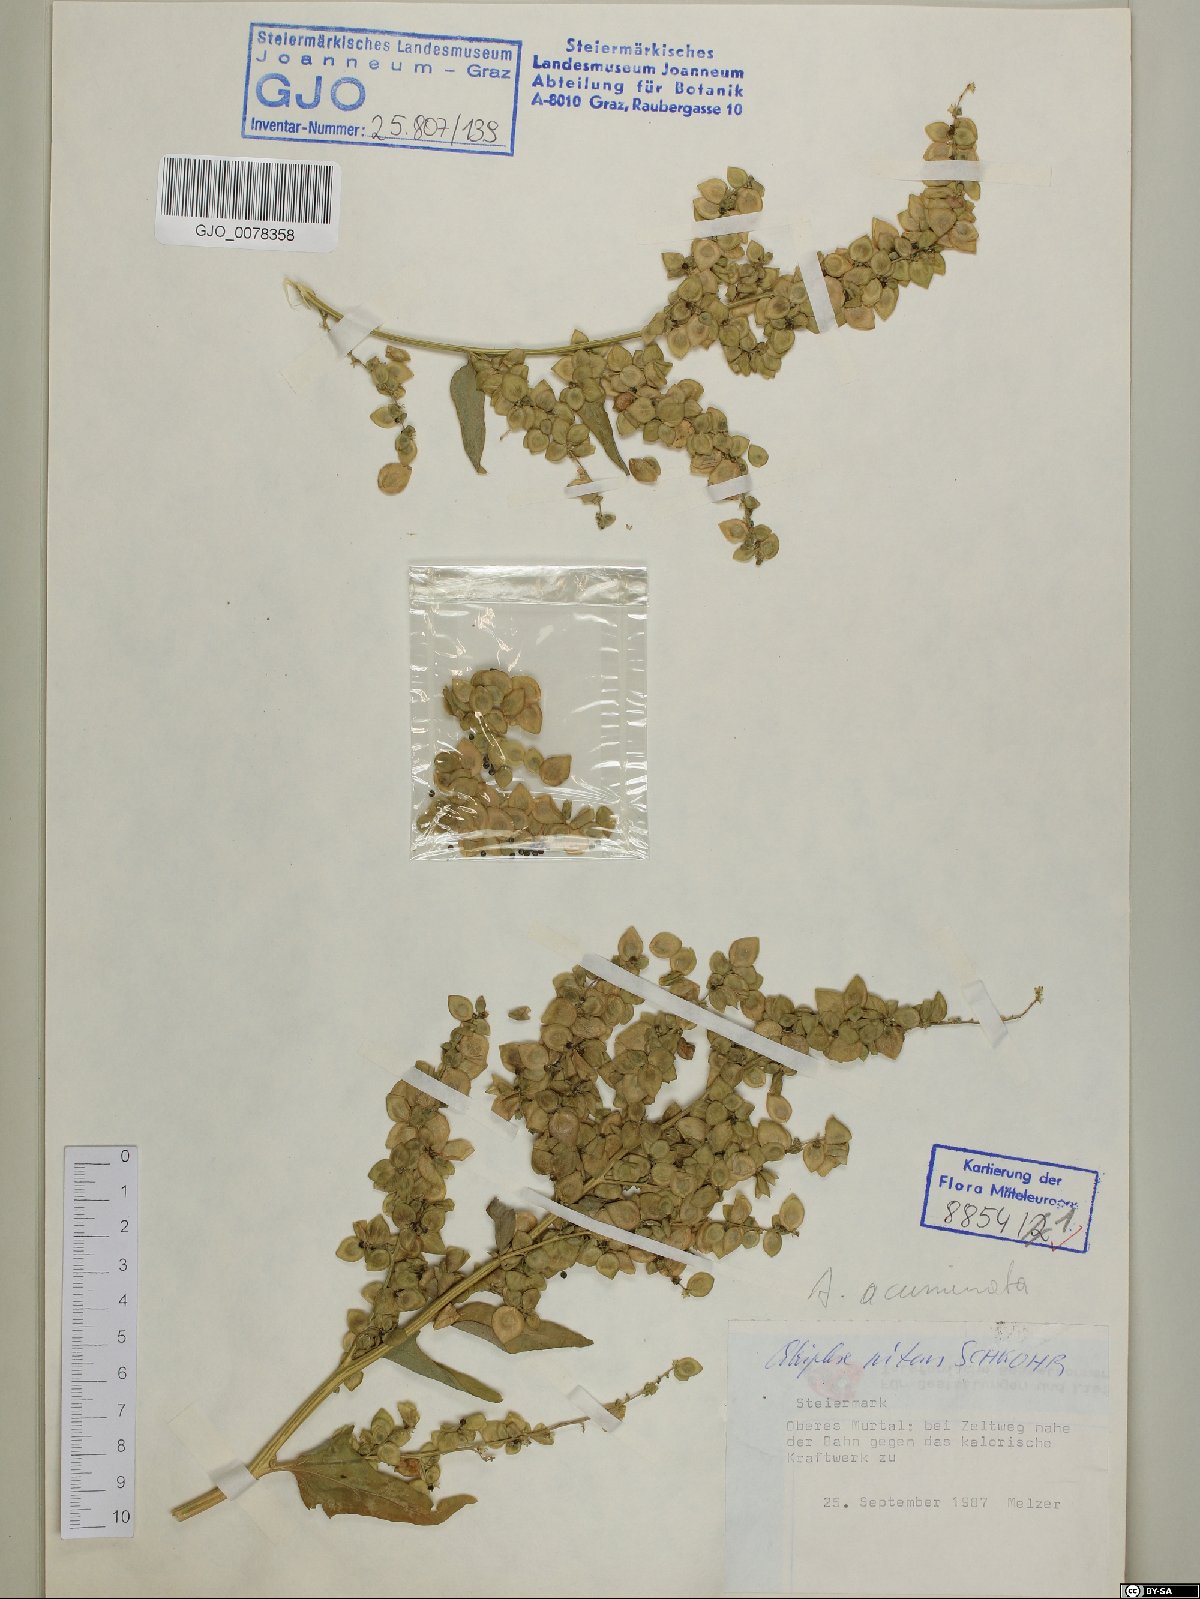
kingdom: Plantae
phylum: Tracheophyta
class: Magnoliopsida
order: Caryophyllales
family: Amaranthaceae
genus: Atriplex
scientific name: Atriplex sagittata
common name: Purple orache
